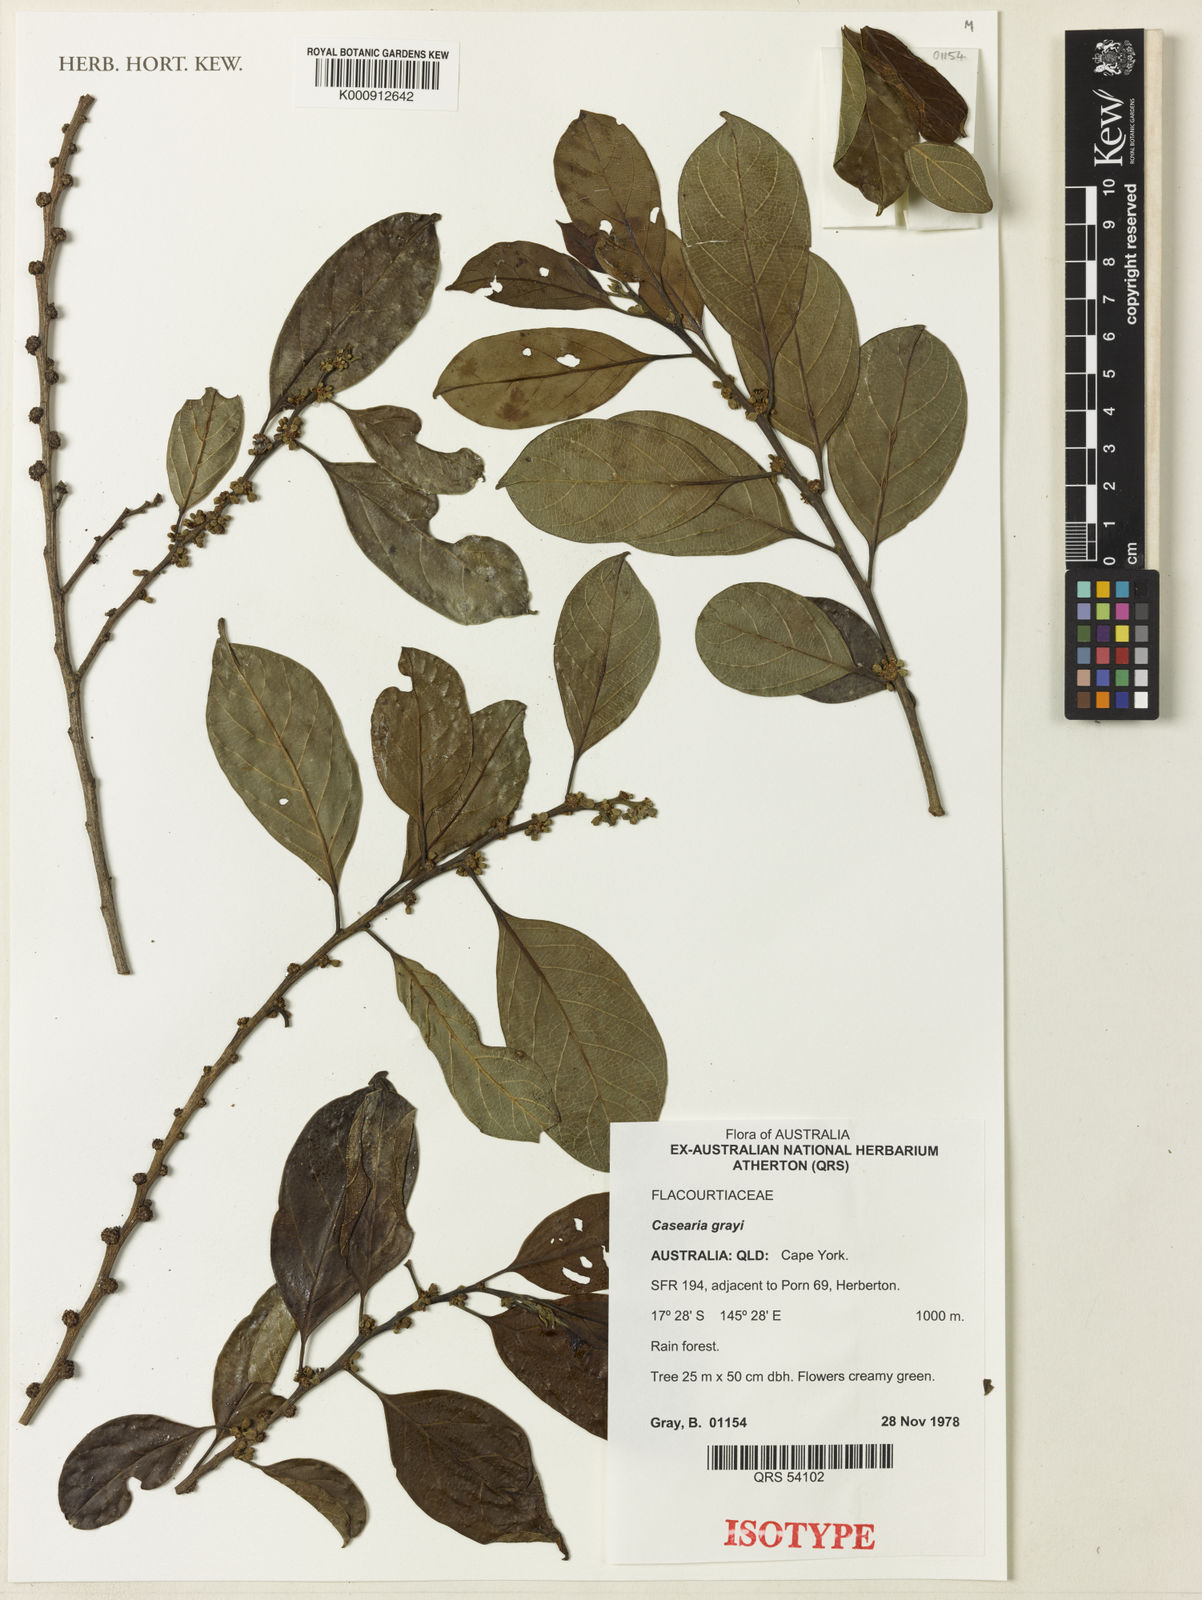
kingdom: Plantae
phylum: Tracheophyta
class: Magnoliopsida
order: Malpighiales
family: Salicaceae
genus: Casearia
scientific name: Casearia grayi
